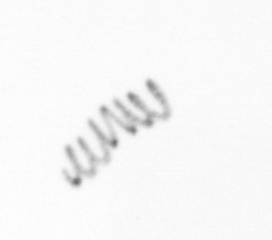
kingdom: Chromista
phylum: Ochrophyta
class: Bacillariophyceae
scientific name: Bacillariophyceae
